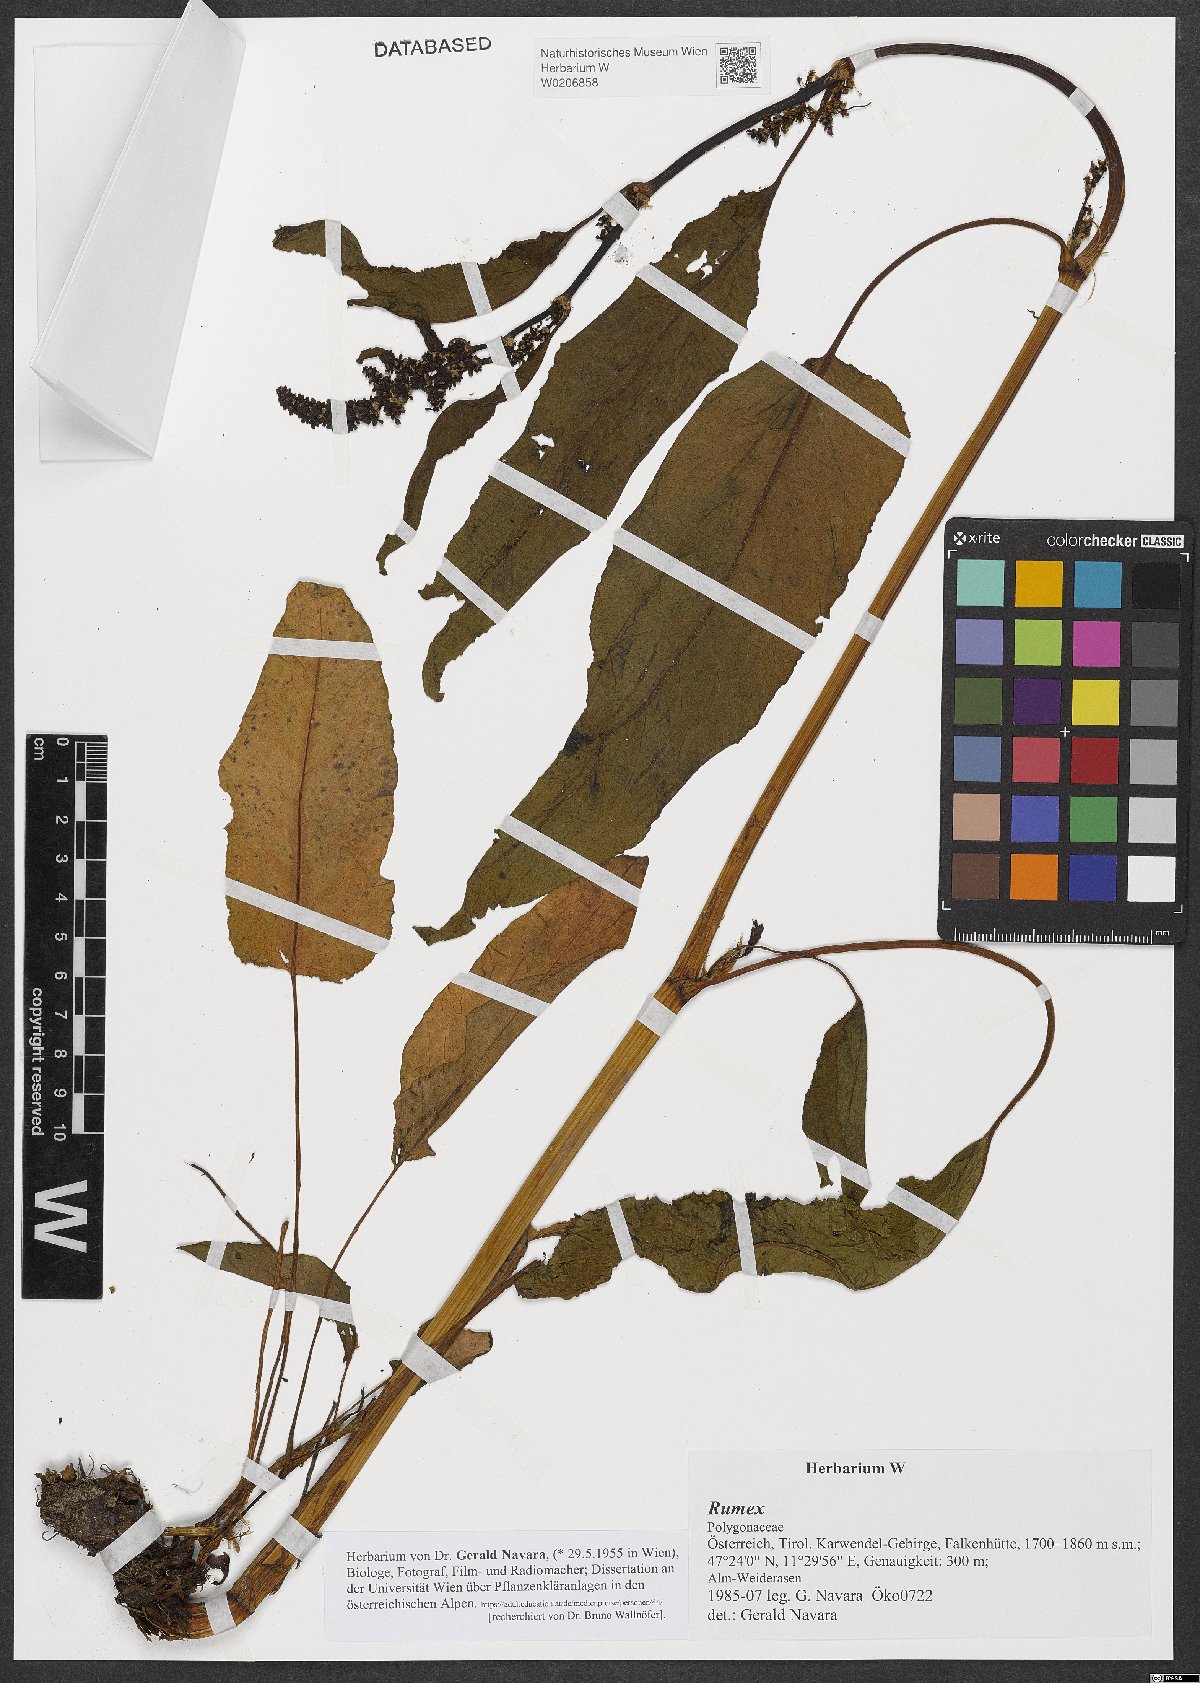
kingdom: Plantae
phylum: Tracheophyta
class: Magnoliopsida
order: Caryophyllales
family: Polygonaceae
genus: Rumex
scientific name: Rumex
